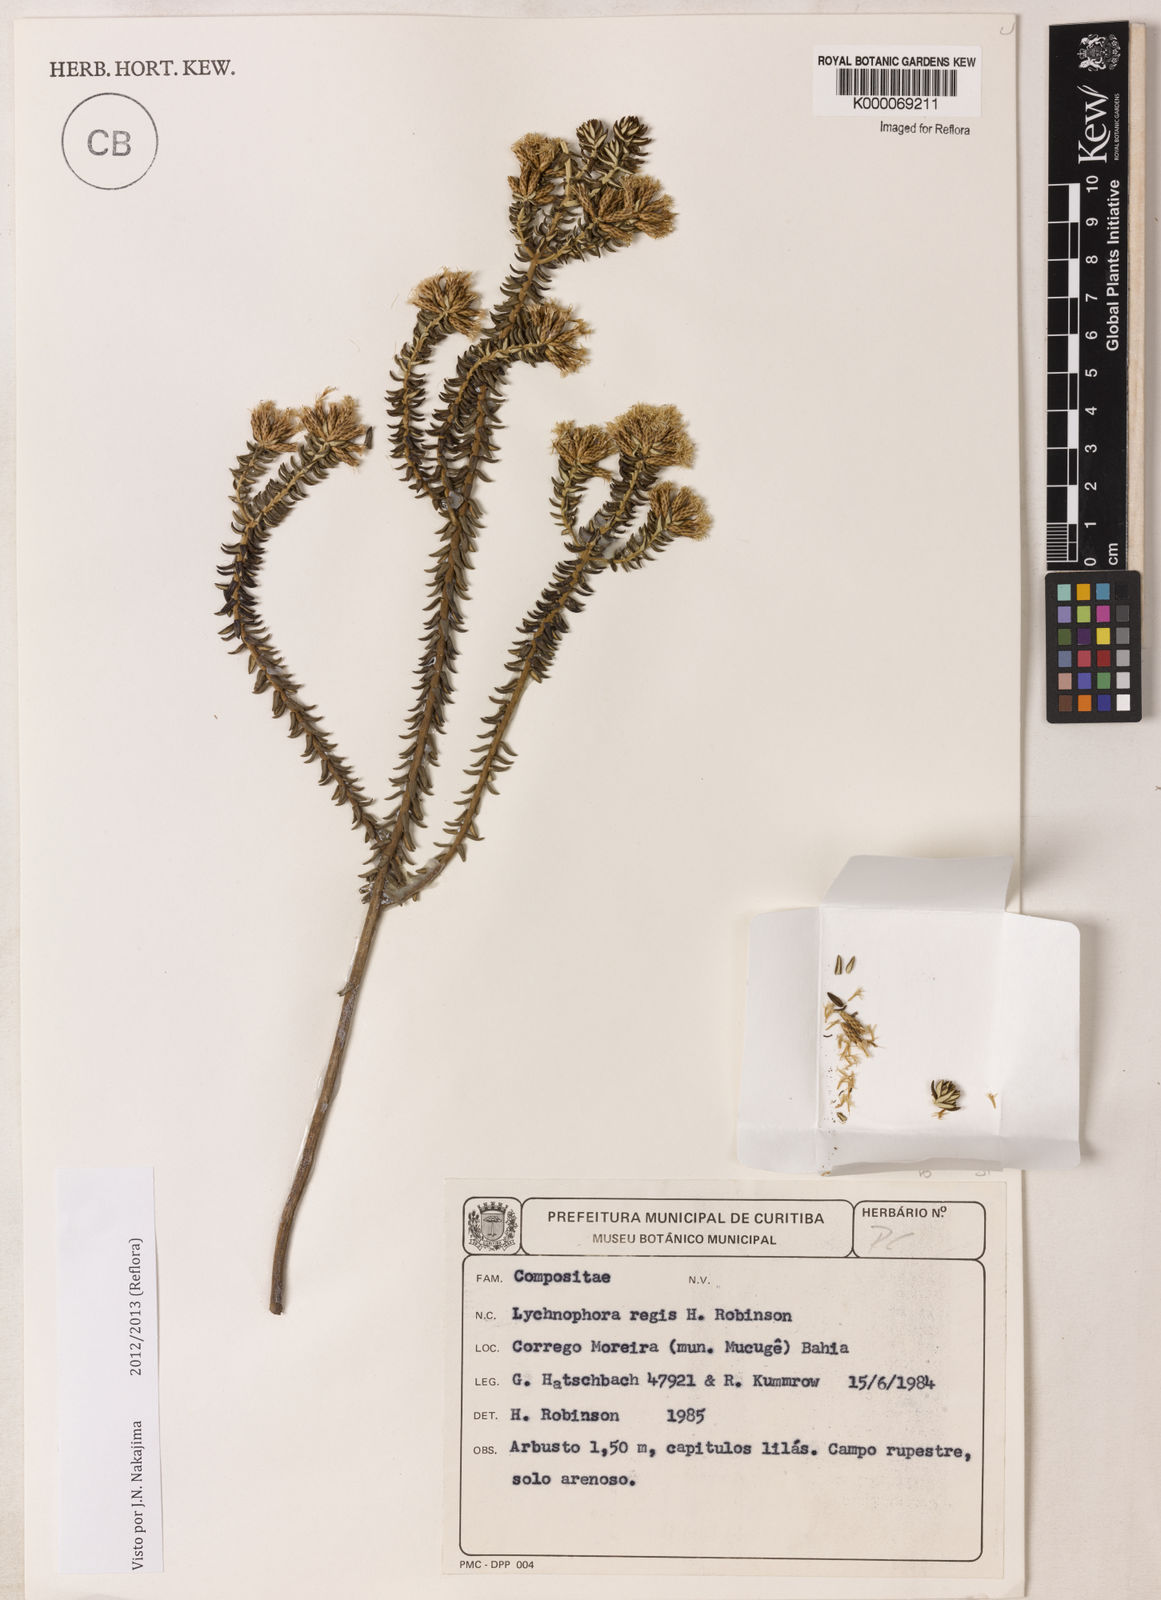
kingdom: Plantae
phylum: Tracheophyta
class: Magnoliopsida
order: Asterales
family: Asteraceae
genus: Lychnophorella
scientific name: Lychnophorella regis
